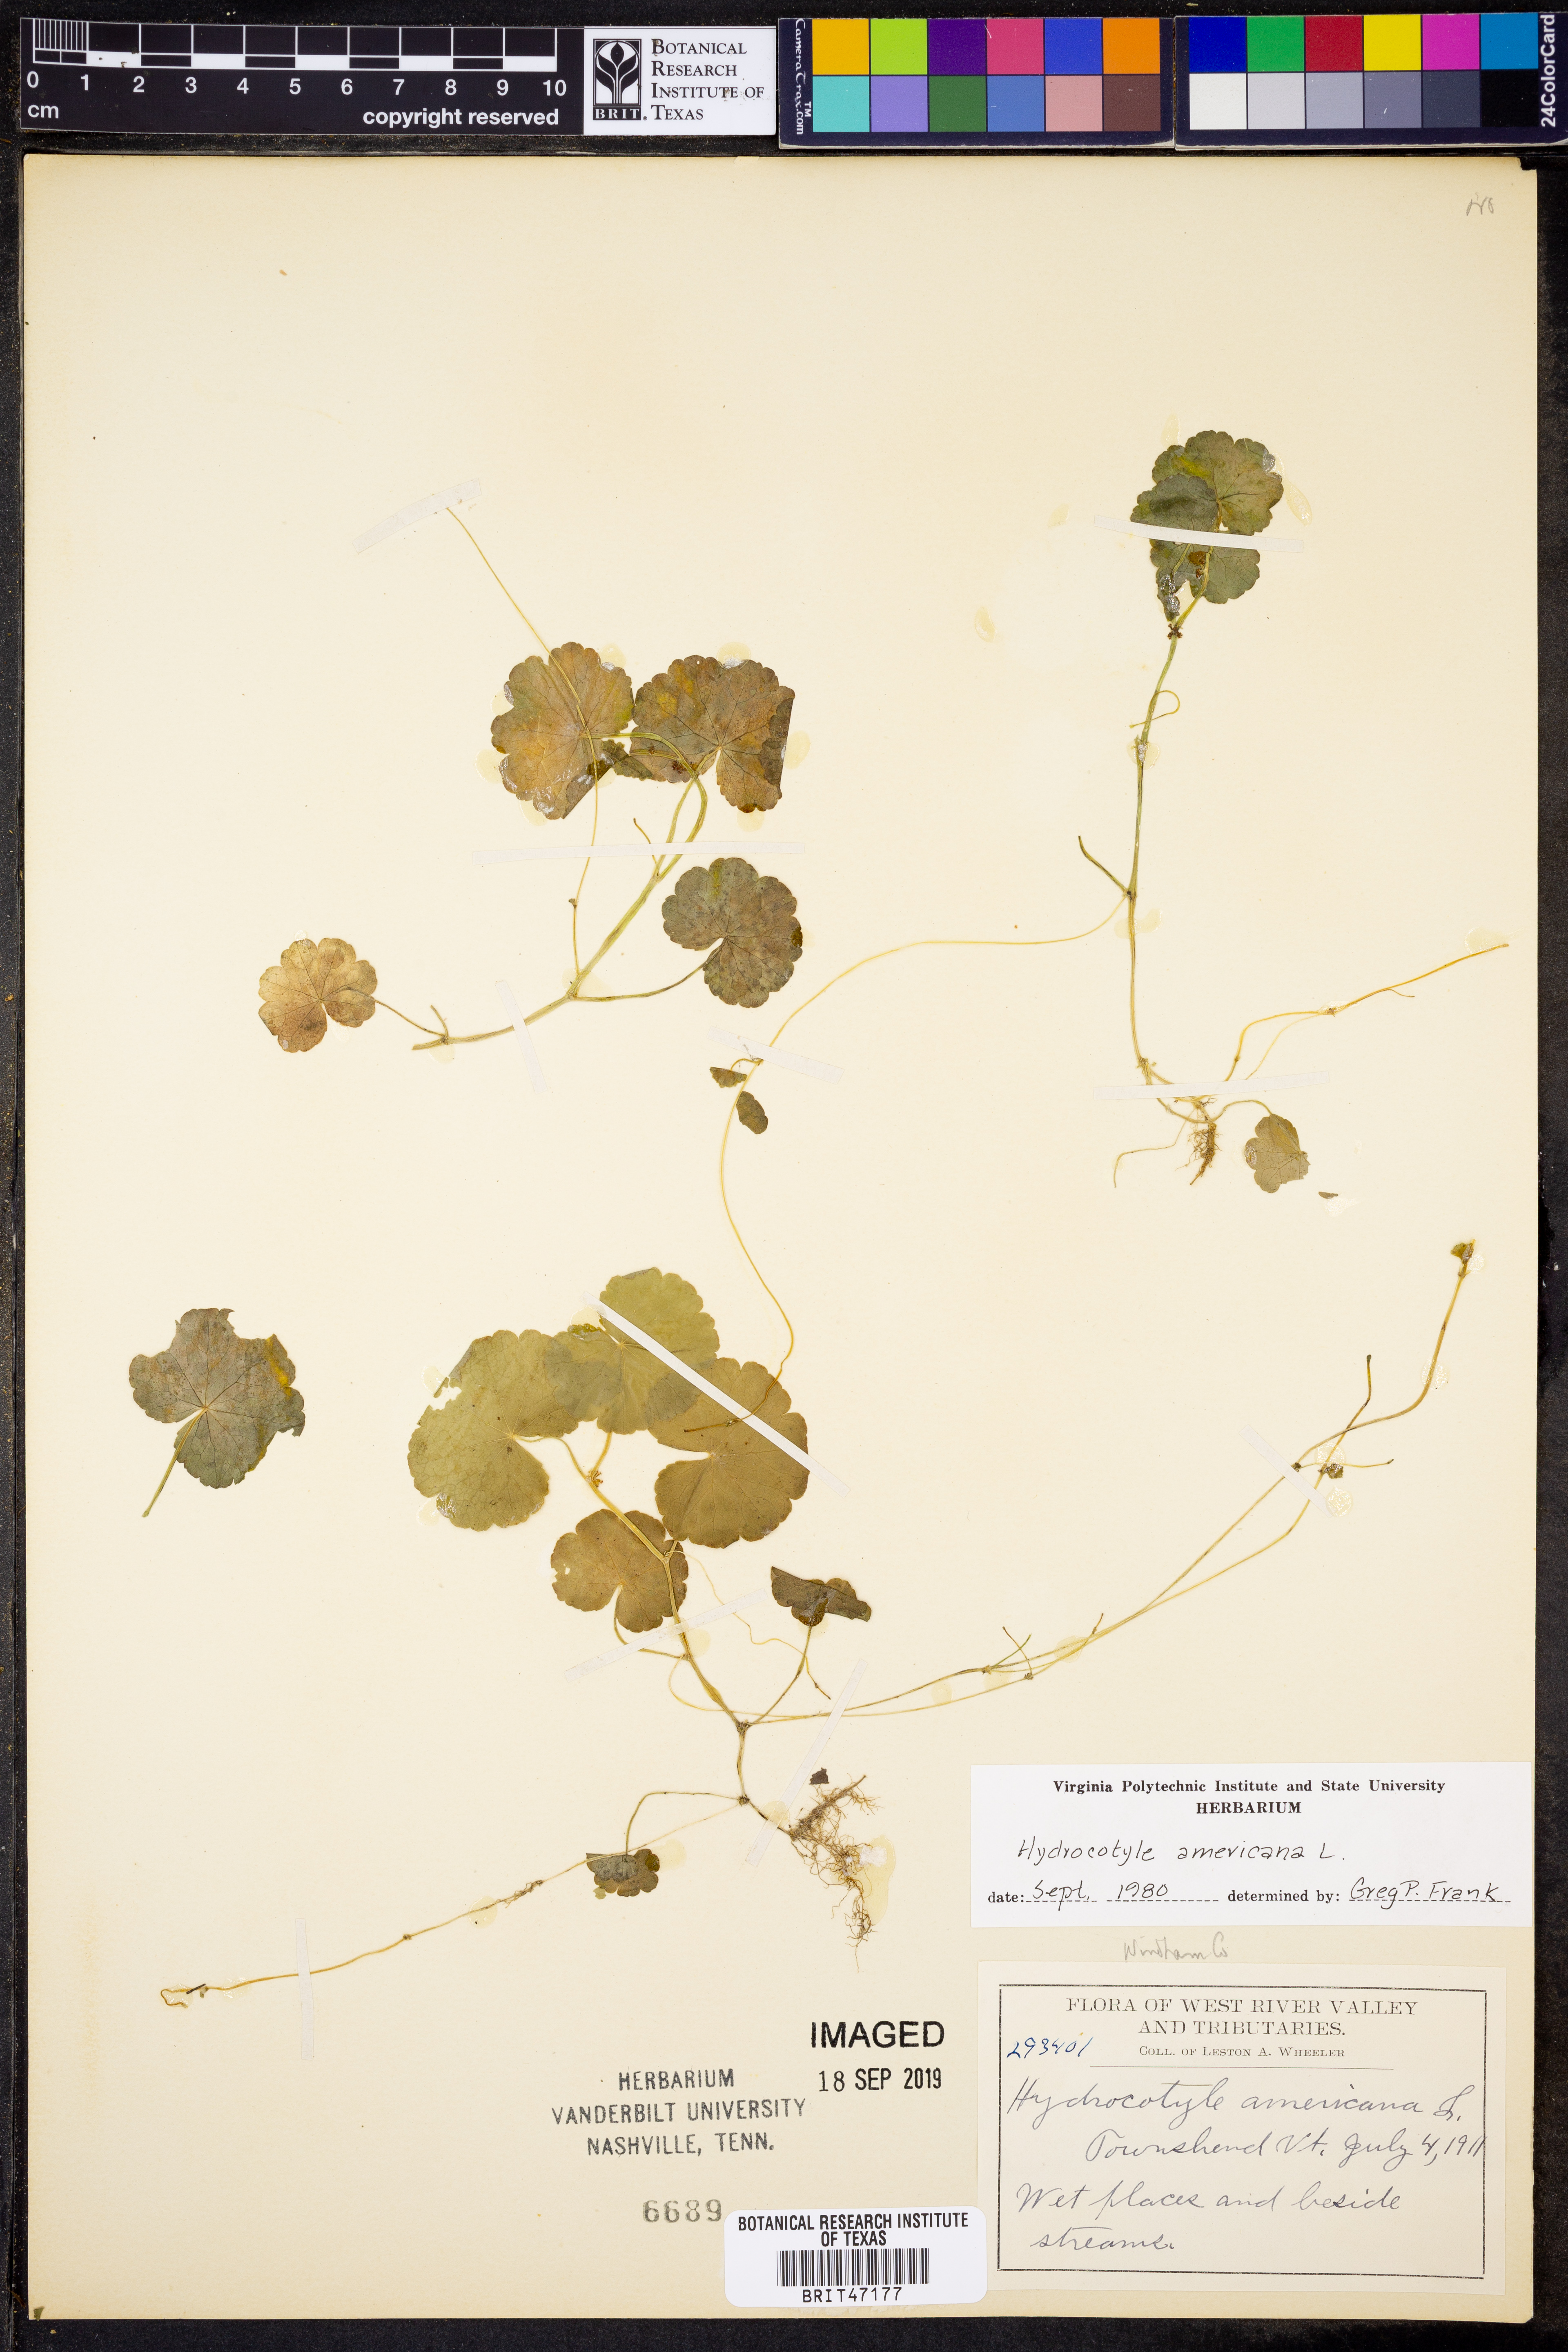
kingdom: Plantae
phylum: Tracheophyta
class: Magnoliopsida
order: Apiales
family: Araliaceae
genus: Hydrocotyle
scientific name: Hydrocotyle americana
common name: American water-pennywort
